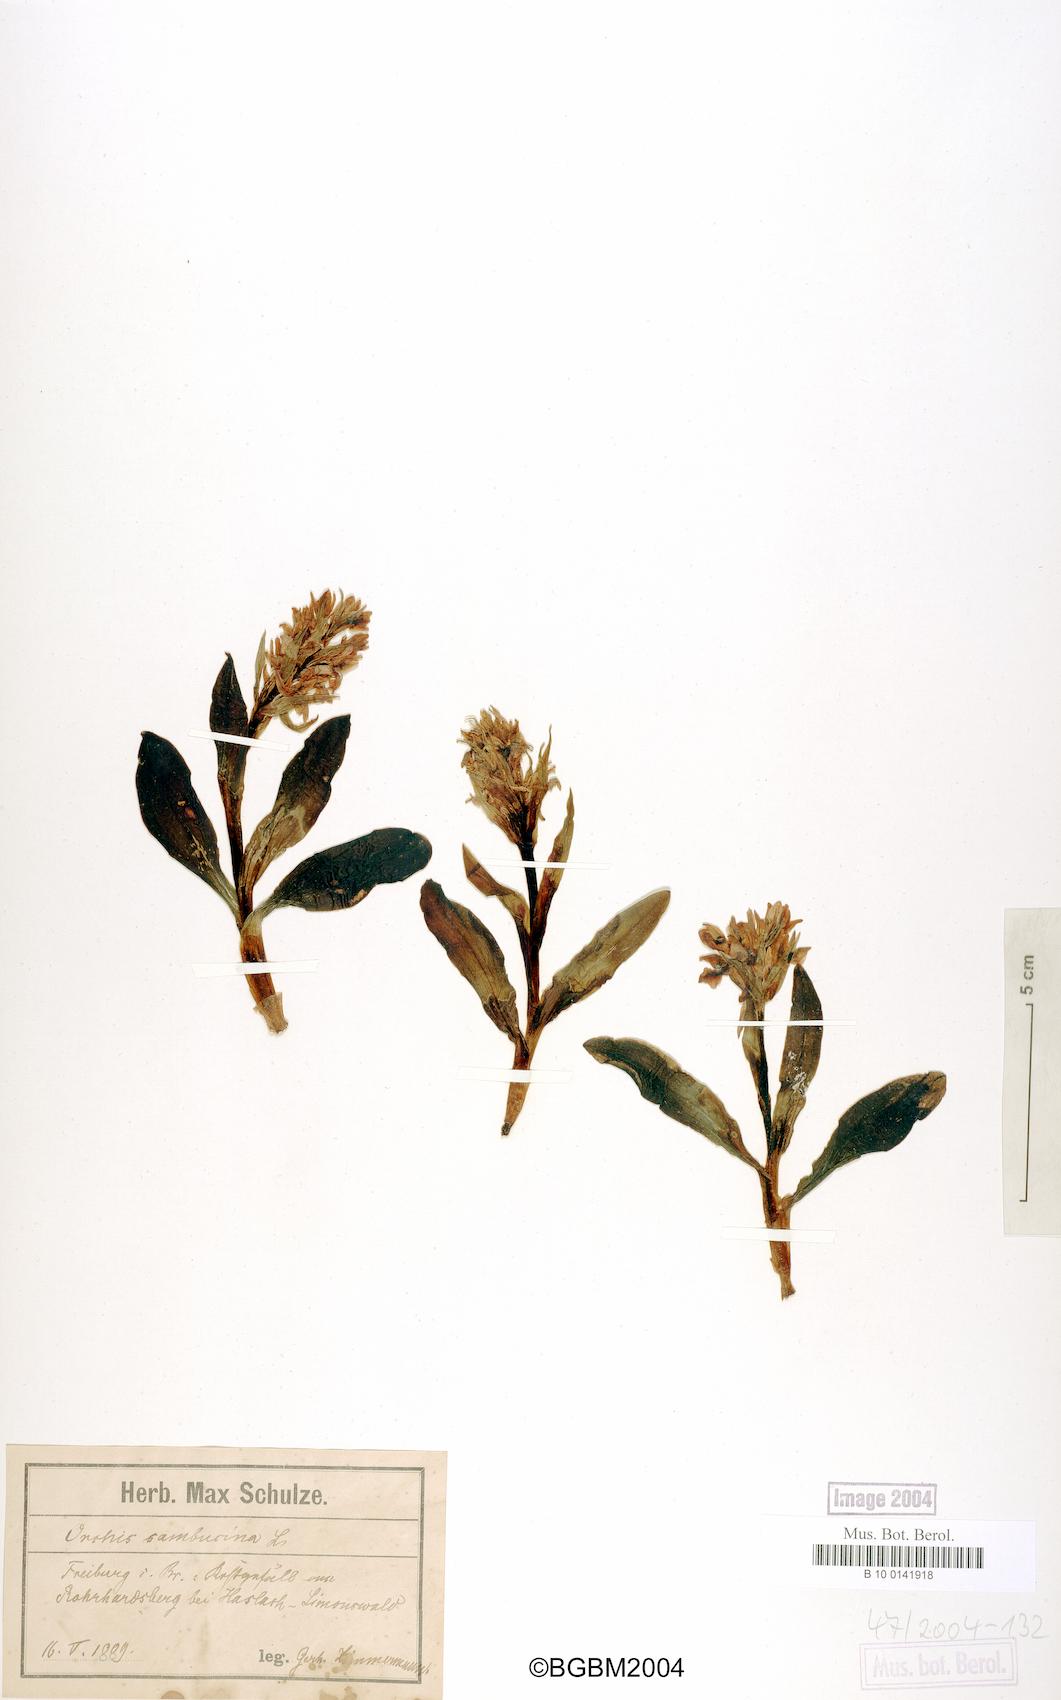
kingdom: Plantae
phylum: Tracheophyta
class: Liliopsida
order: Asparagales
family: Orchidaceae
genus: Dactylorhiza
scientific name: Dactylorhiza sambucina
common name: Elder-flowered orchid
